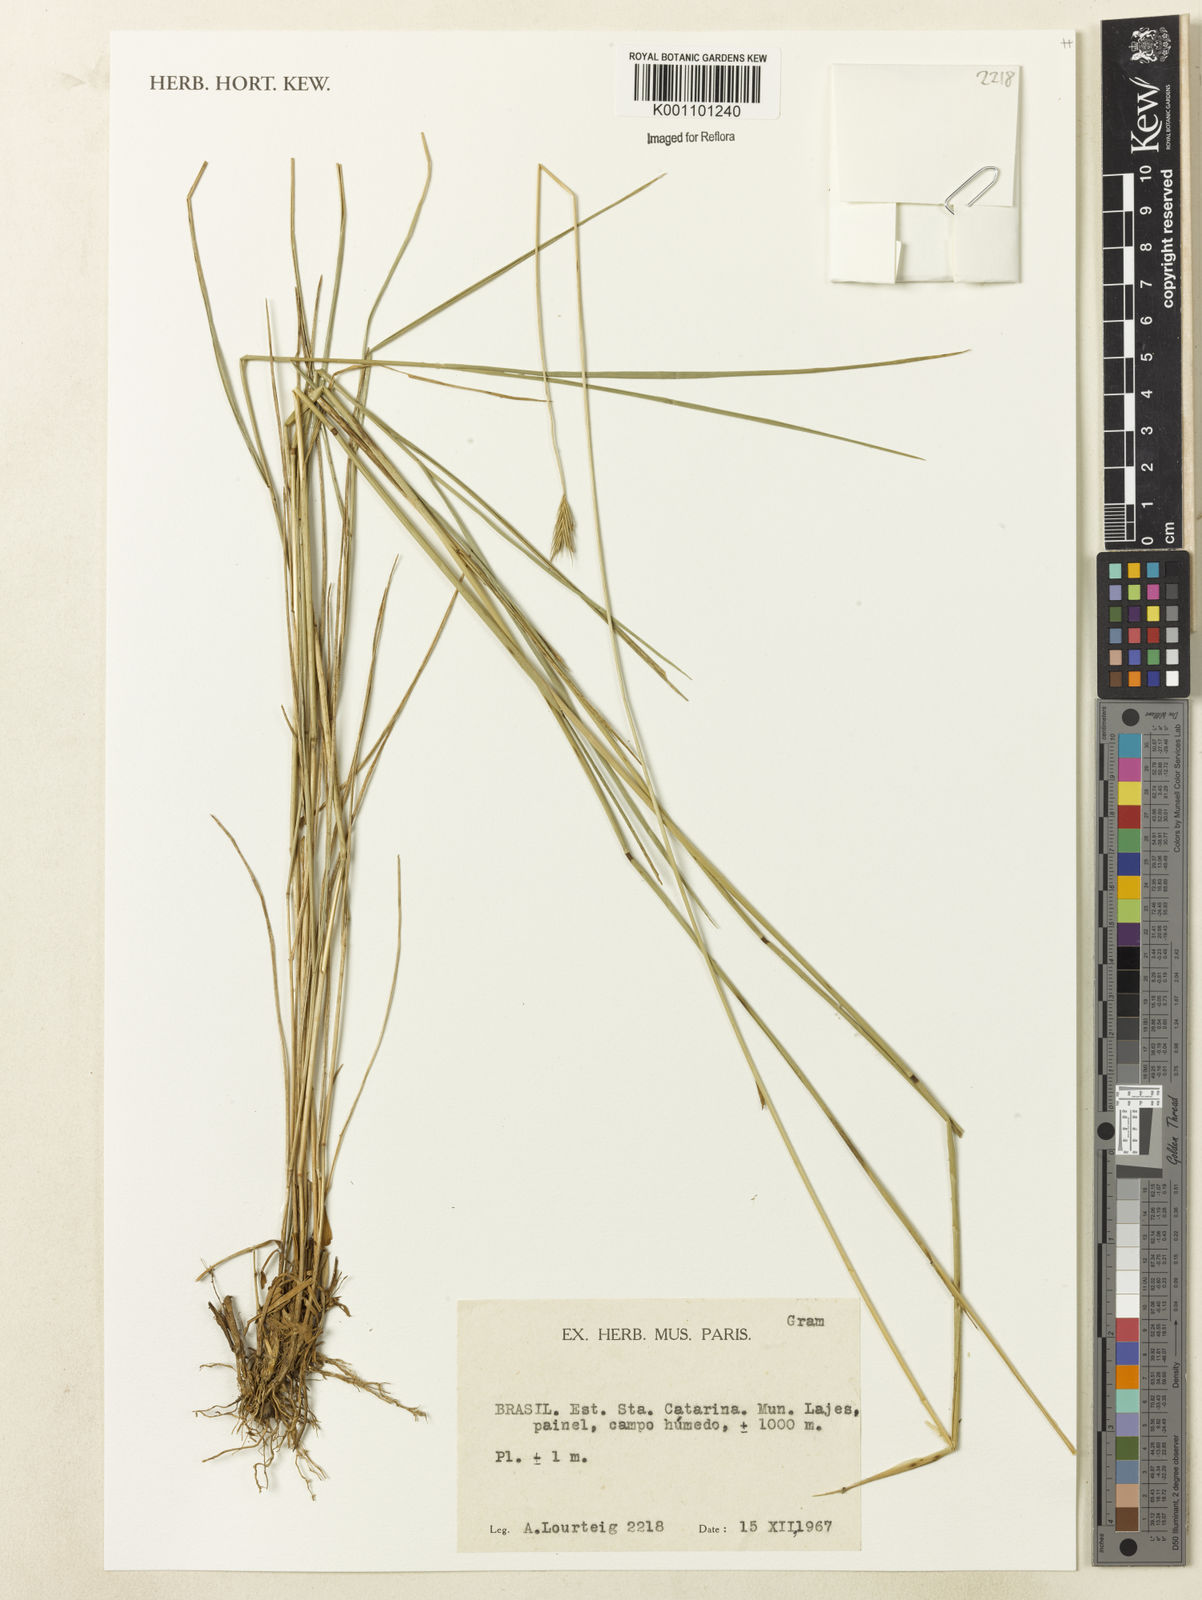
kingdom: Plantae
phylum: Tracheophyta
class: Liliopsida
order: Poales
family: Poaceae
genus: Hordeum
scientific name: Hordeum stenostachys
